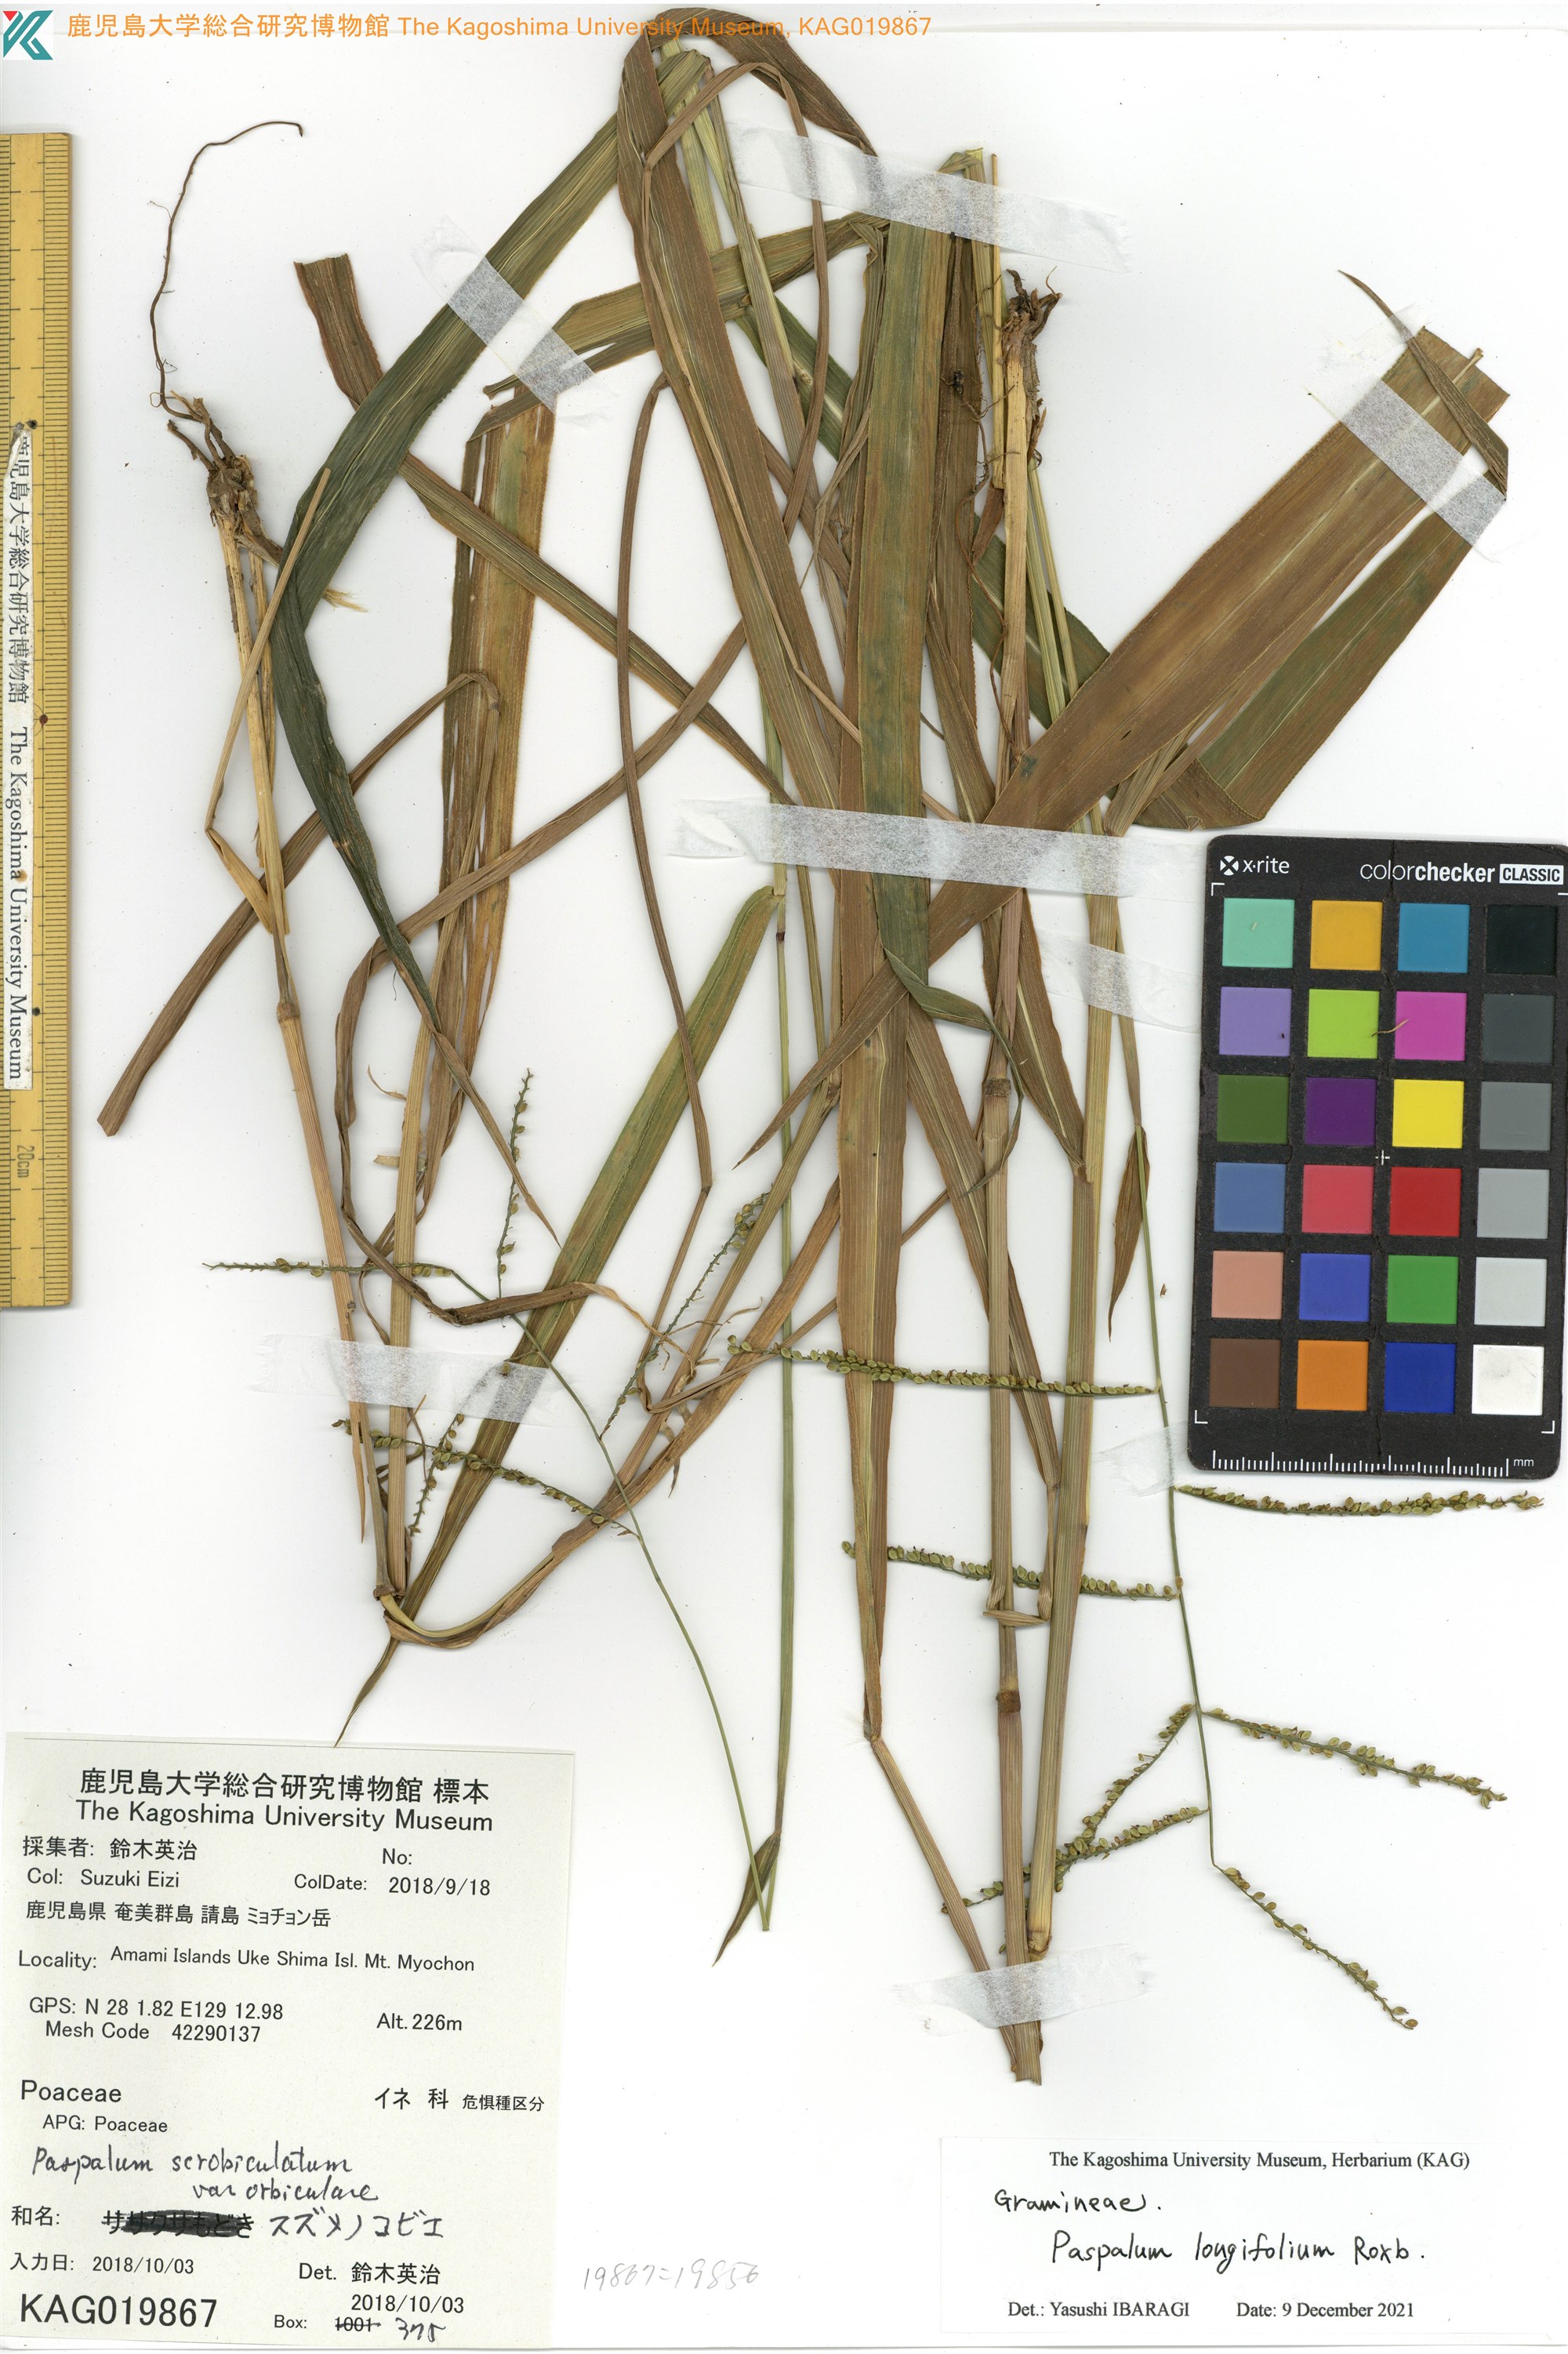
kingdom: Plantae
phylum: Tracheophyta
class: Liliopsida
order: Poales
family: Poaceae
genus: Paspalum
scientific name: Paspalum scrobiculatum
